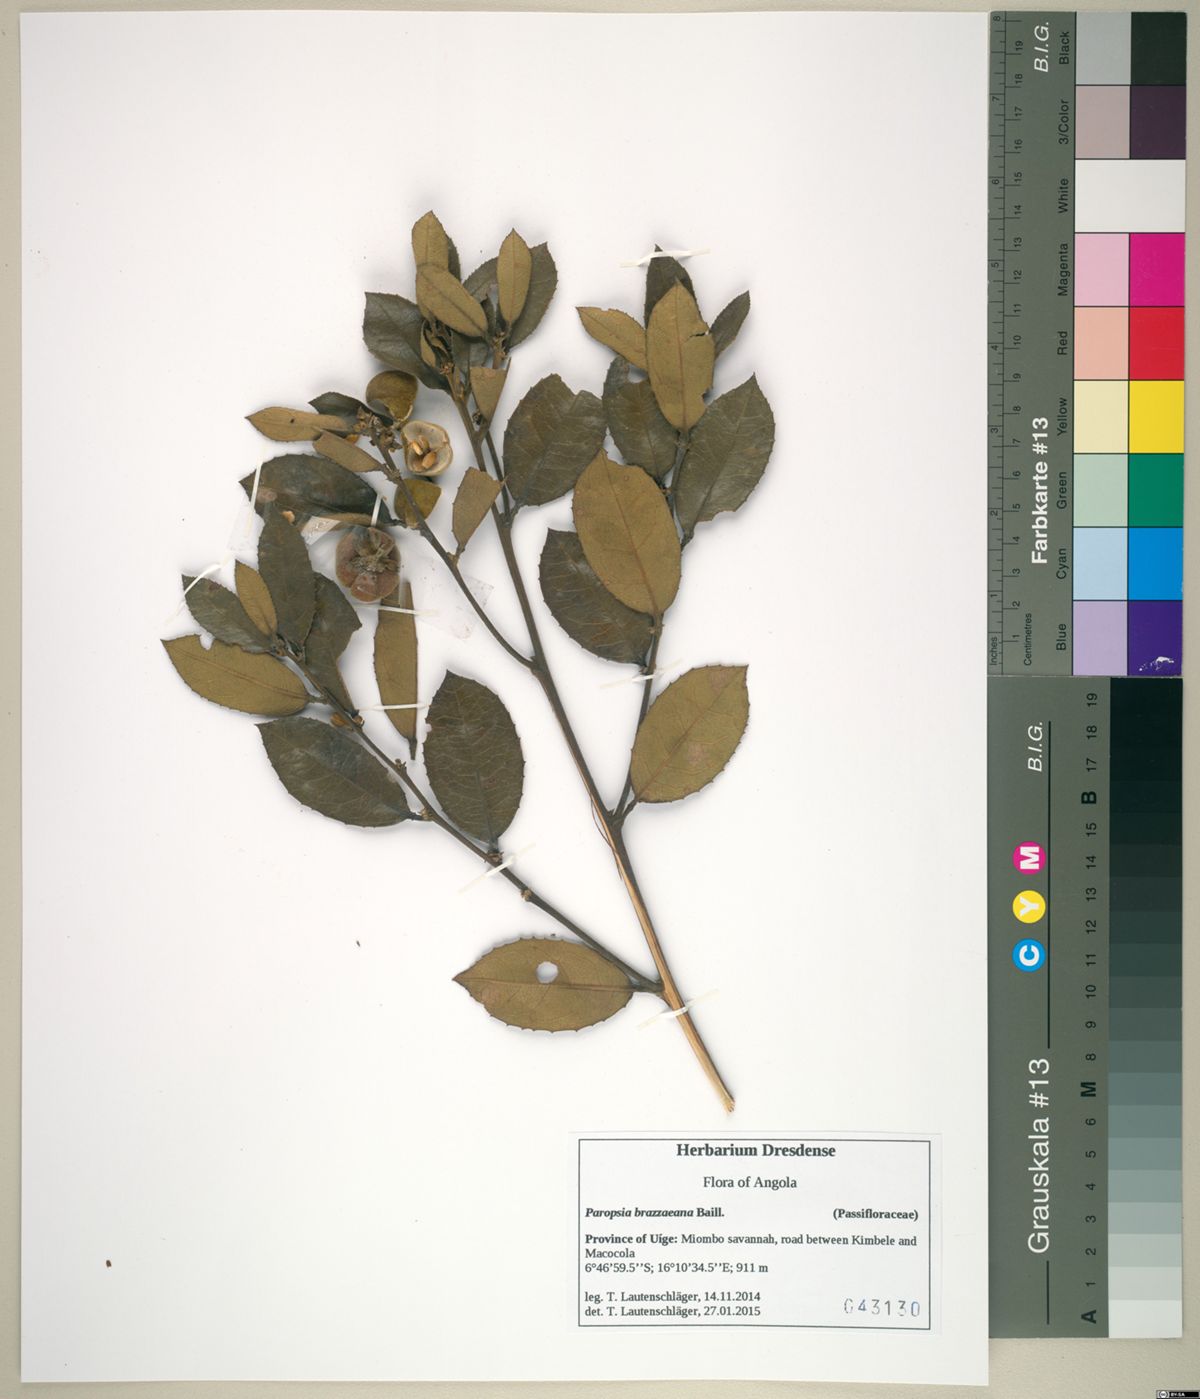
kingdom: Plantae
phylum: Tracheophyta
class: Magnoliopsida
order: Malpighiales
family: Passifloraceae
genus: Paropsia
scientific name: Paropsia brazzaeana
